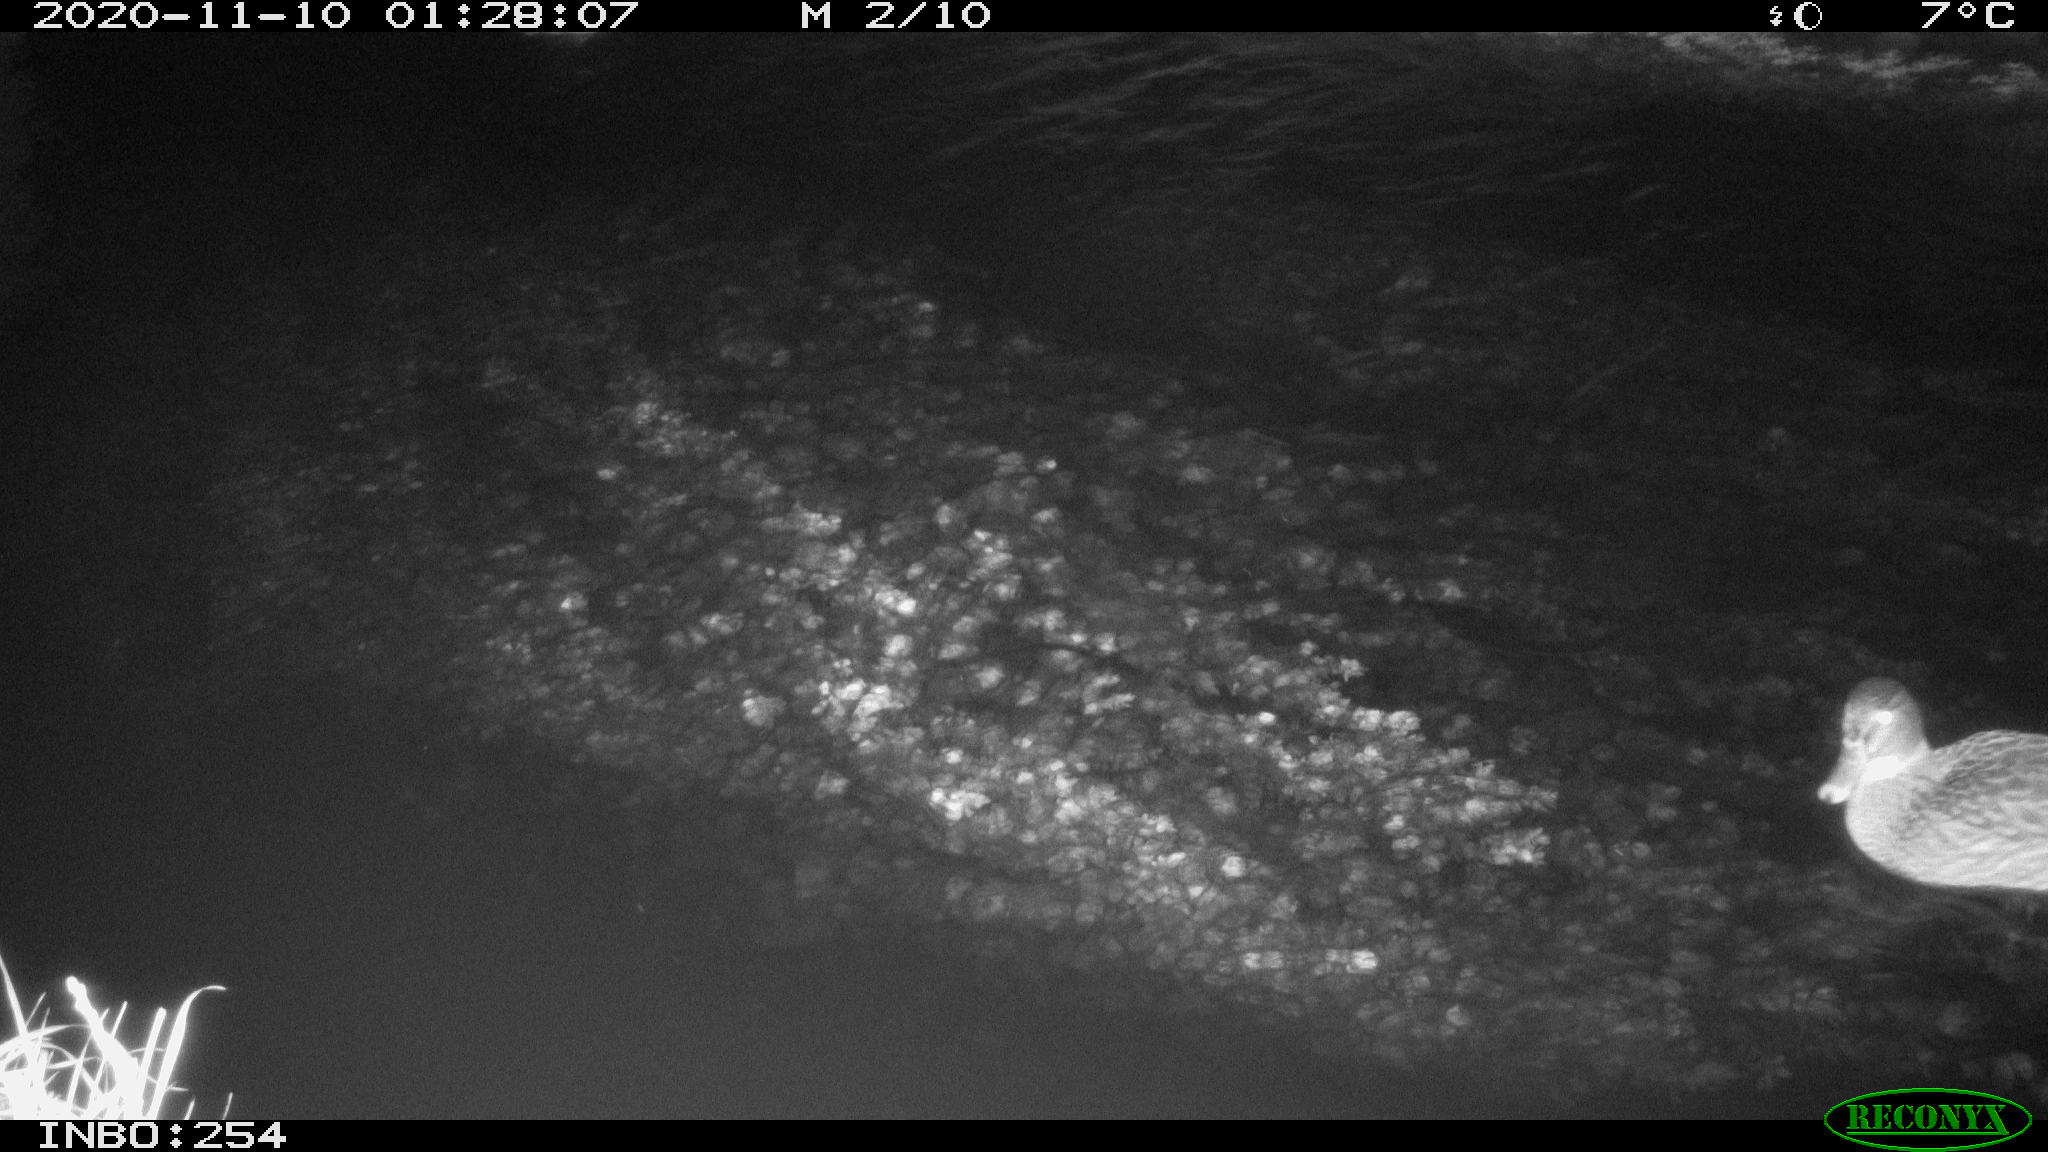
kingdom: Animalia
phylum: Chordata
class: Aves
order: Anseriformes
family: Anatidae
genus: Anas
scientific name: Anas platyrhynchos
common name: Mallard
